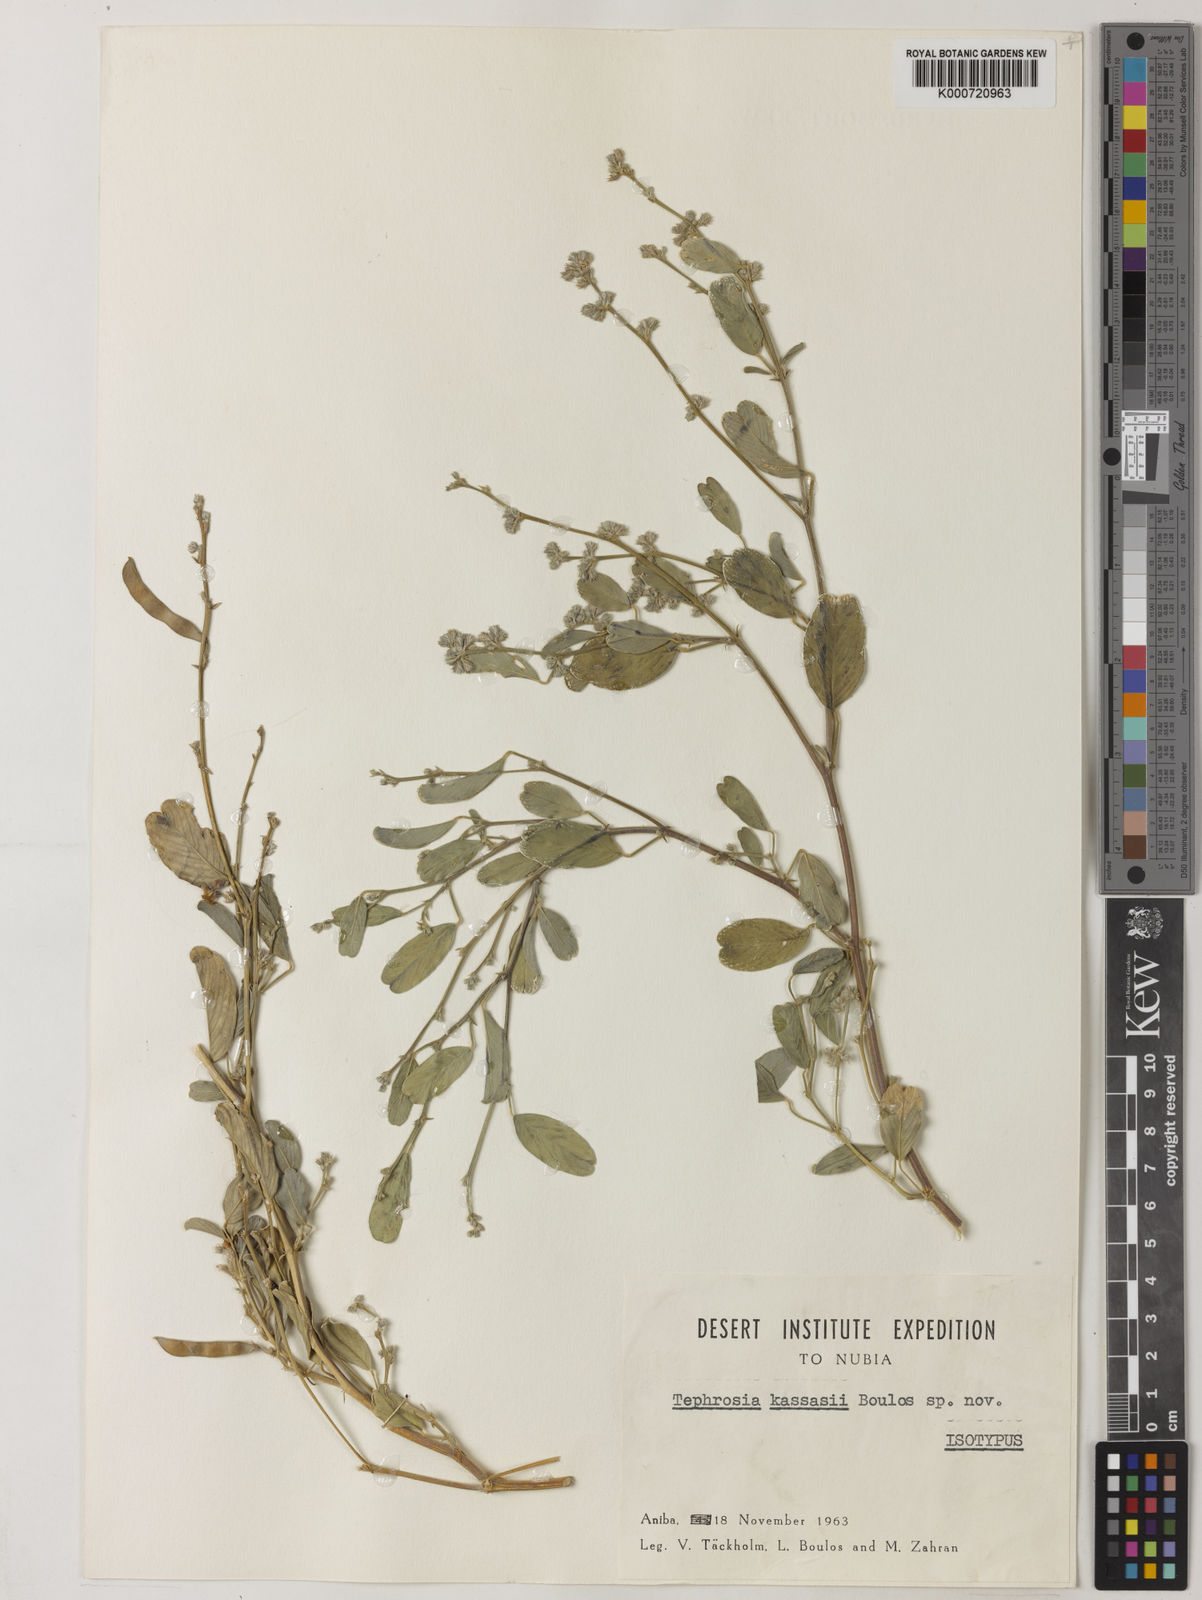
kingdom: Plantae
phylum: Tracheophyta
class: Magnoliopsida
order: Fabales
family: Fabaceae
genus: Tephrosia
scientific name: Tephrosia kassasii
